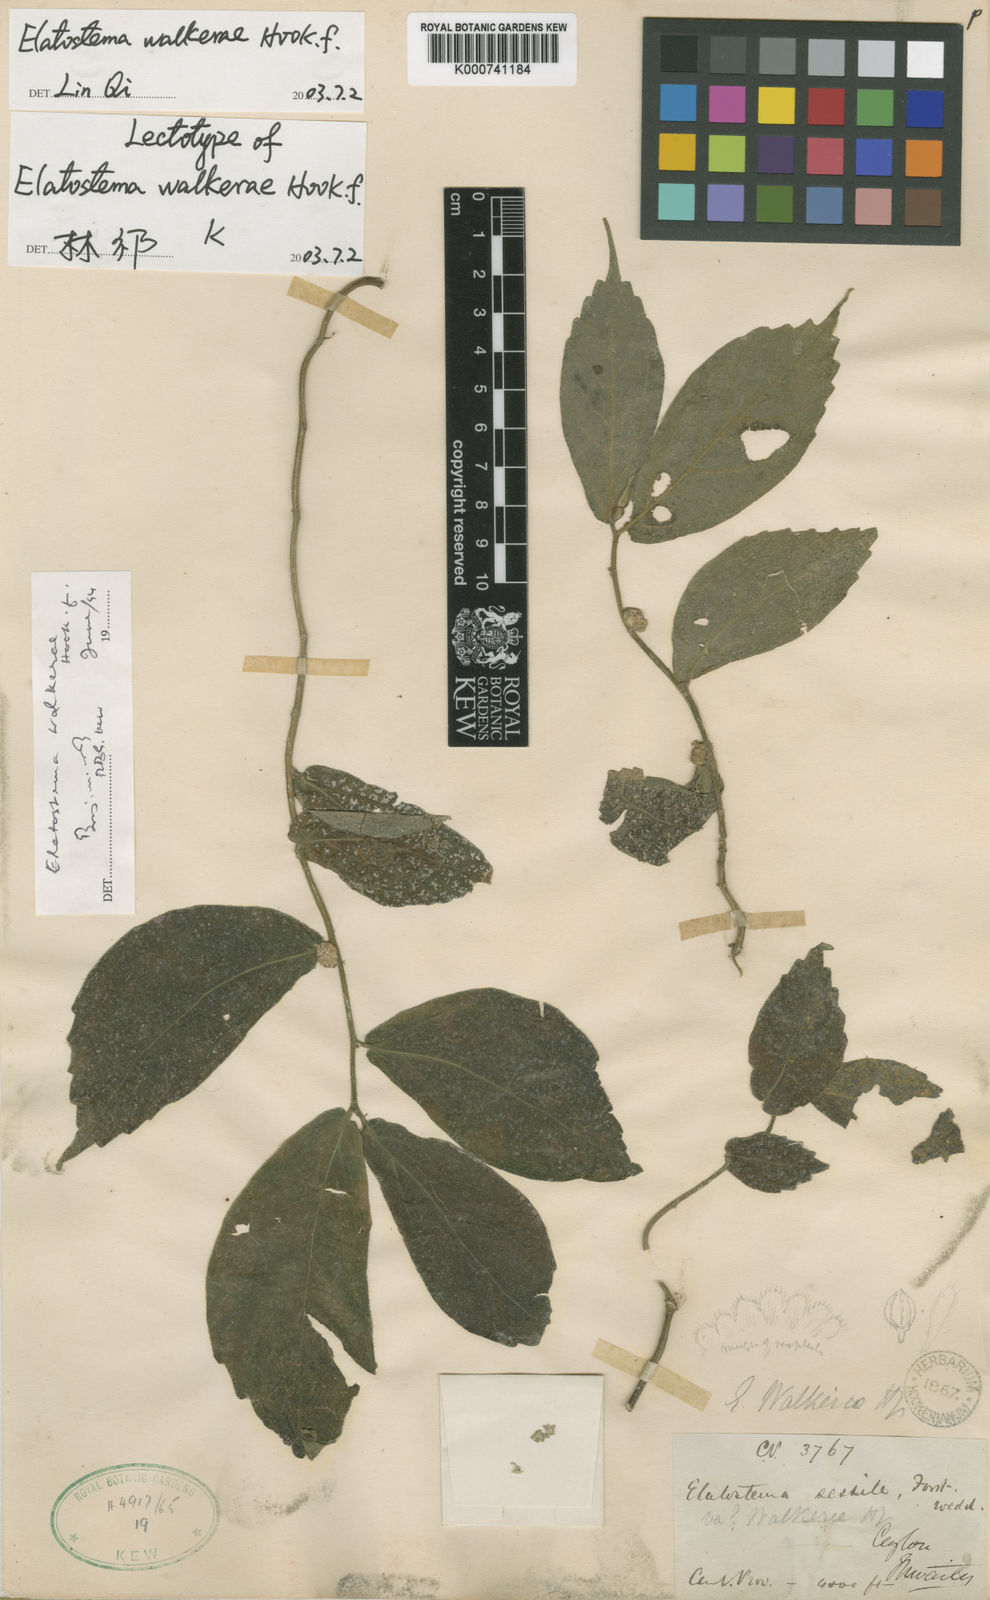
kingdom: Plantae
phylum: Tracheophyta
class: Magnoliopsida
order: Rosales
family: Urticaceae
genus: Elatostema
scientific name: Elatostema walkerae
